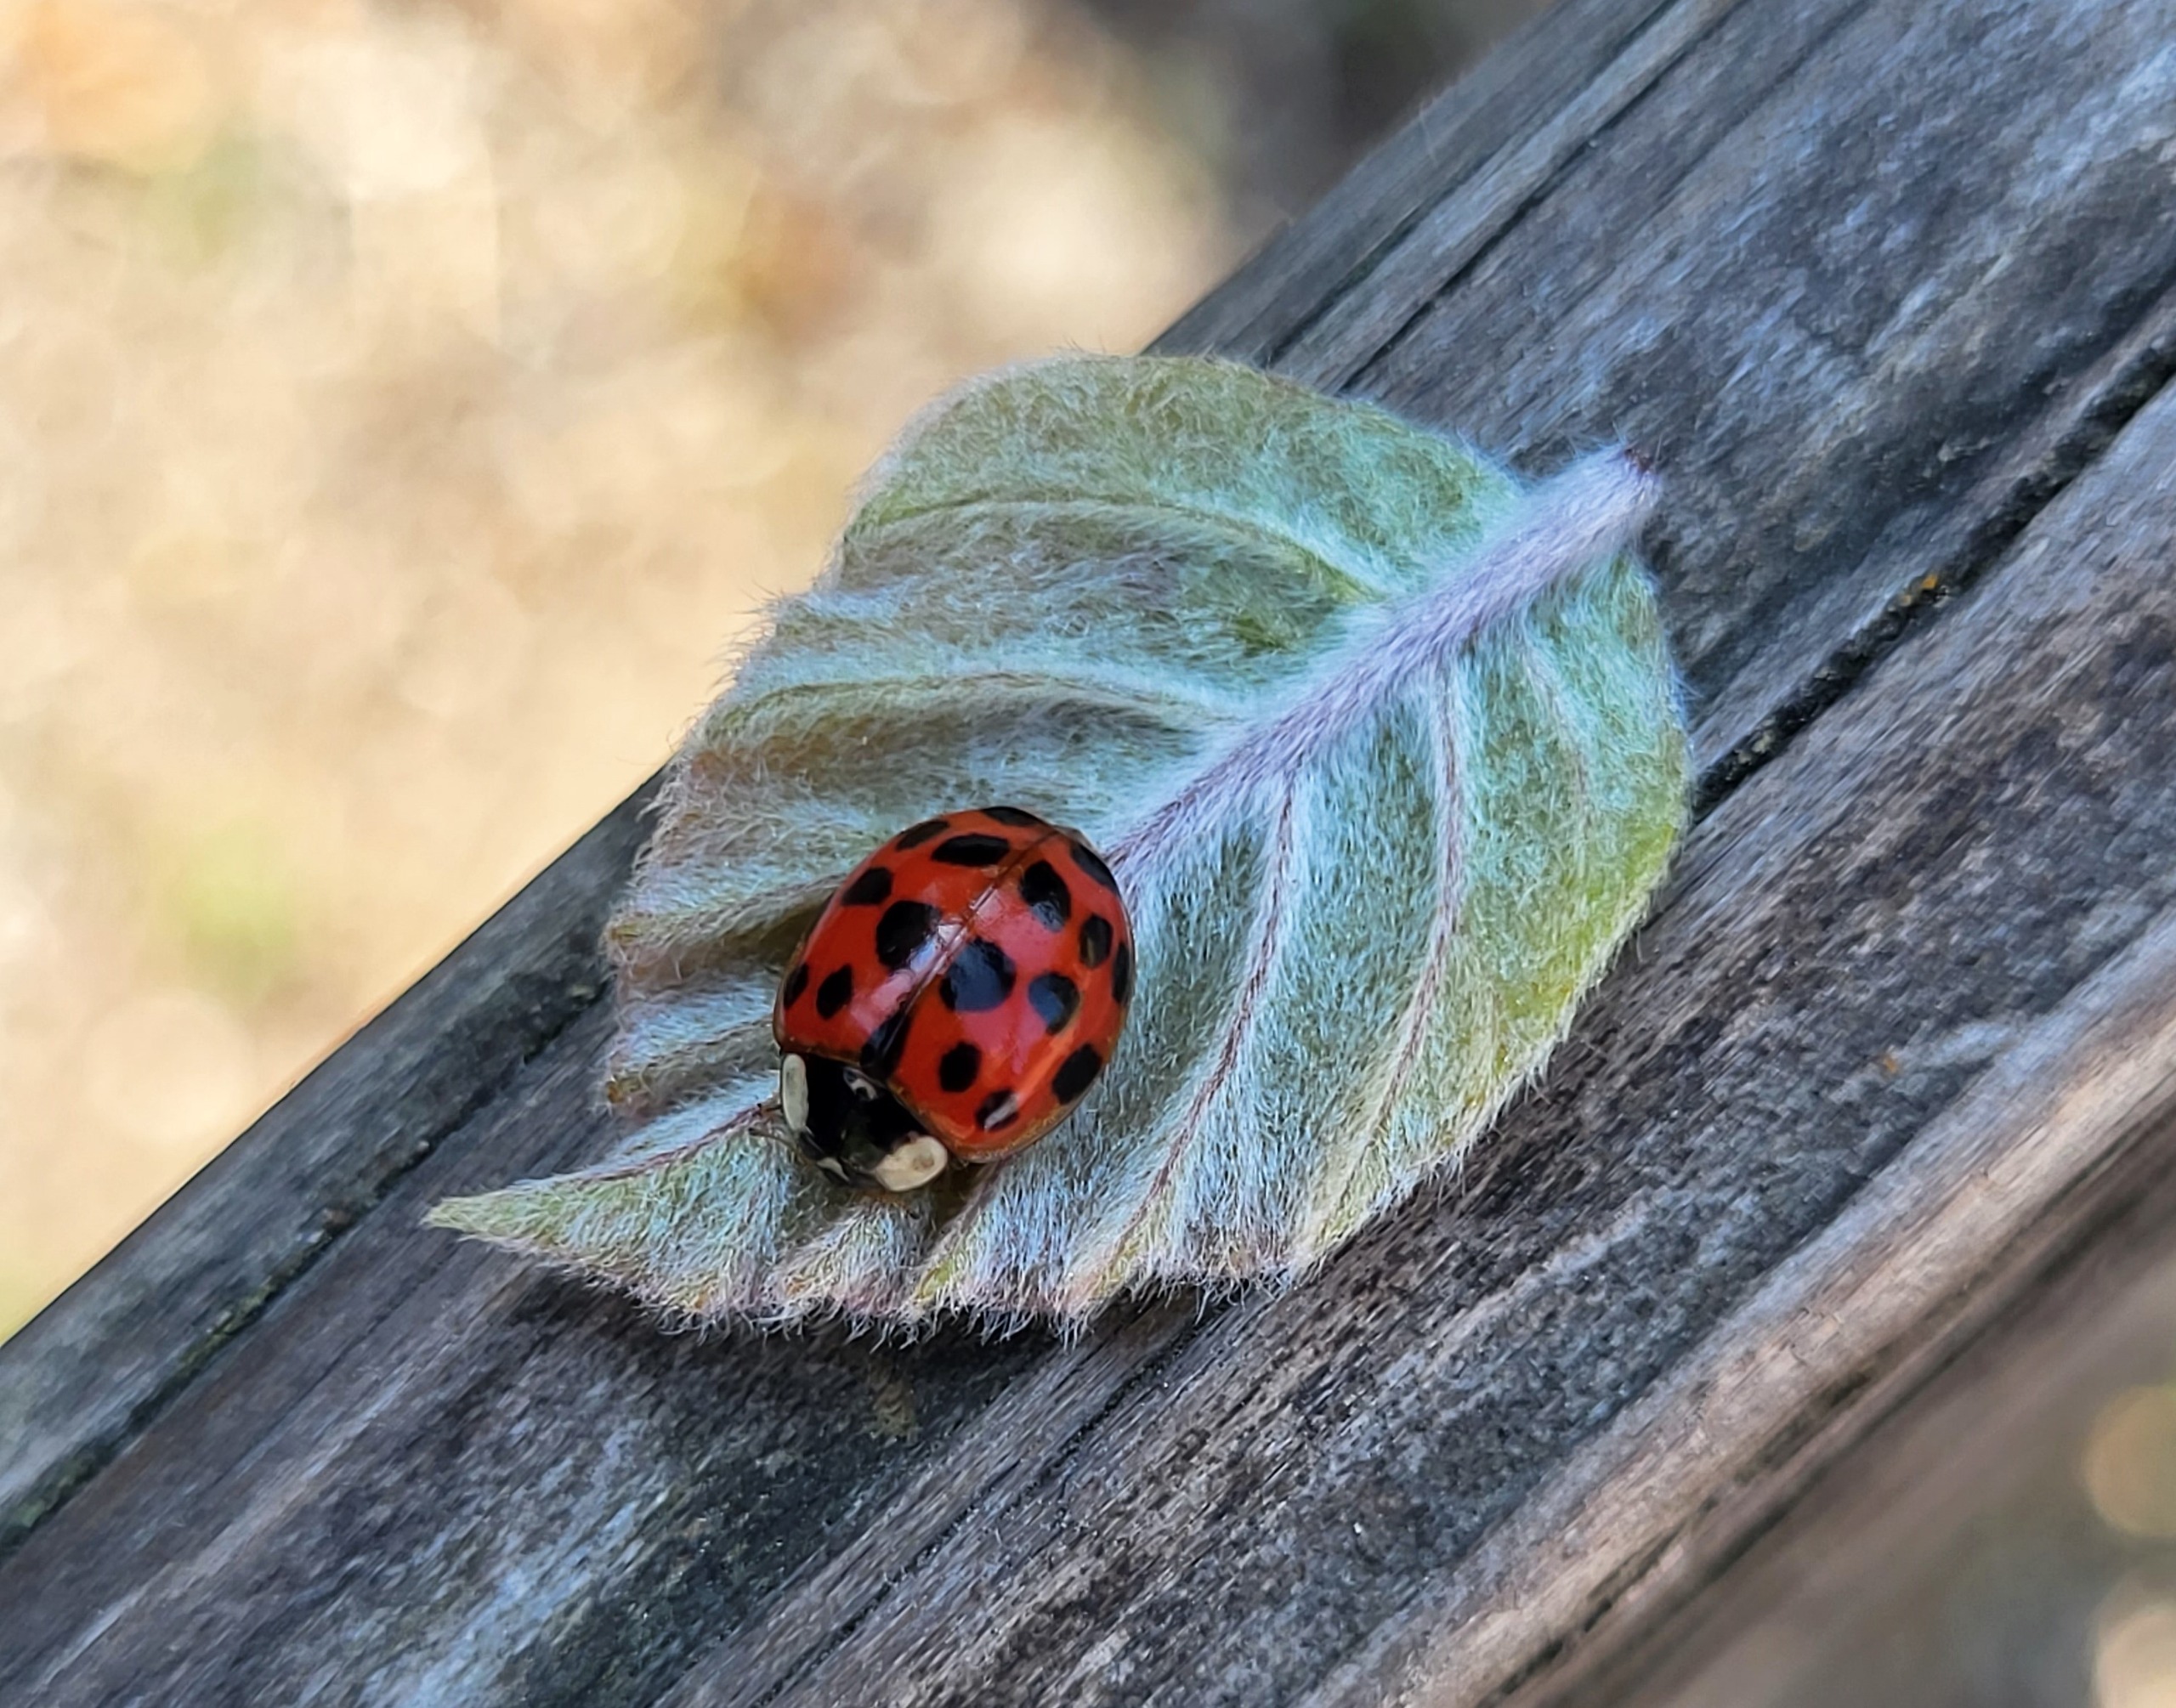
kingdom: Animalia
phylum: Arthropoda
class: Insecta
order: Coleoptera
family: Coccinellidae
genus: Harmonia
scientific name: Harmonia axyridis
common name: Harlekinmariehøne
